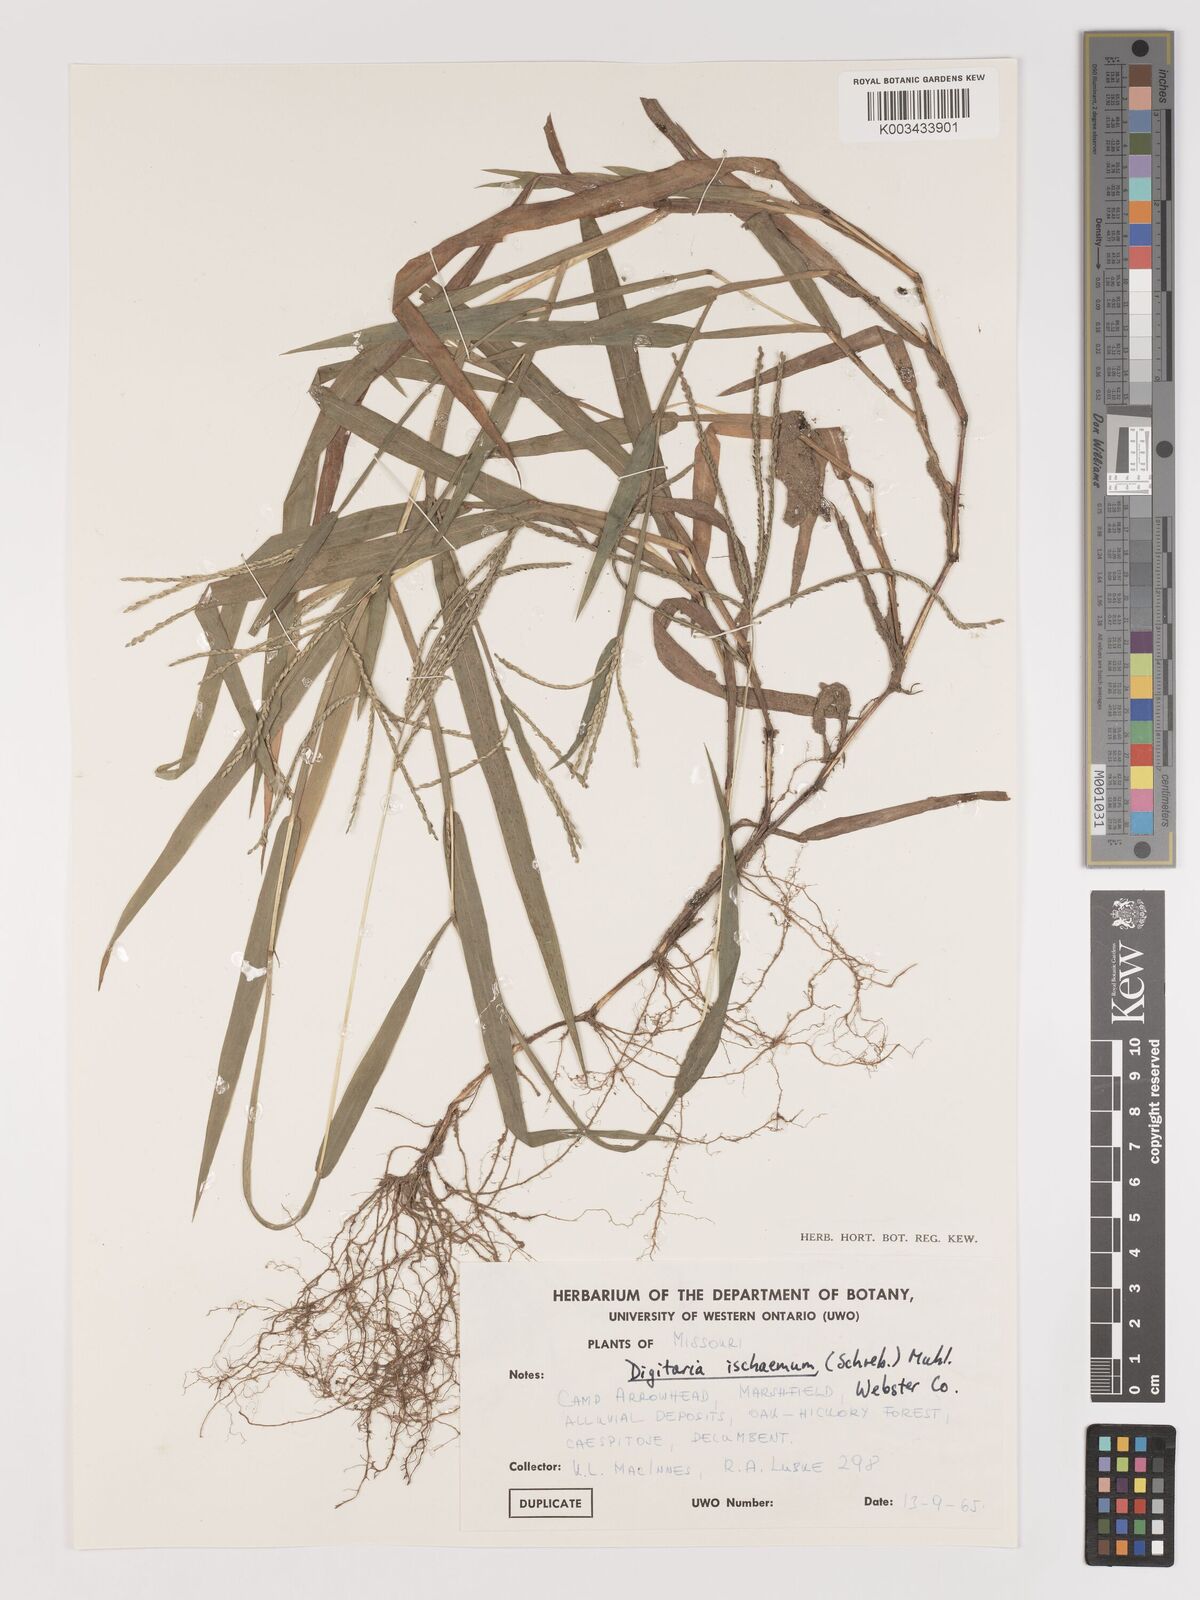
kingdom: Plantae
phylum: Tracheophyta
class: Liliopsida
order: Poales
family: Poaceae
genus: Digitaria
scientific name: Digitaria ischaemum
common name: Smooth crabgrass
